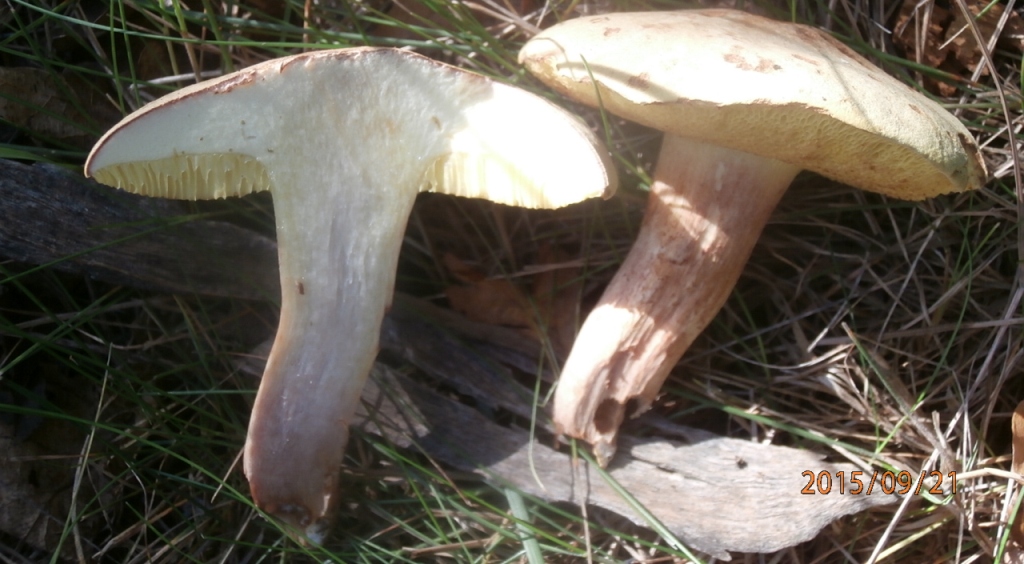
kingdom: Fungi
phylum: Basidiomycota
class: Agaricomycetes
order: Boletales
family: Boletaceae
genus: Xerocomus
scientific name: Xerocomus subtomentosus
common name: filtet rørhat
